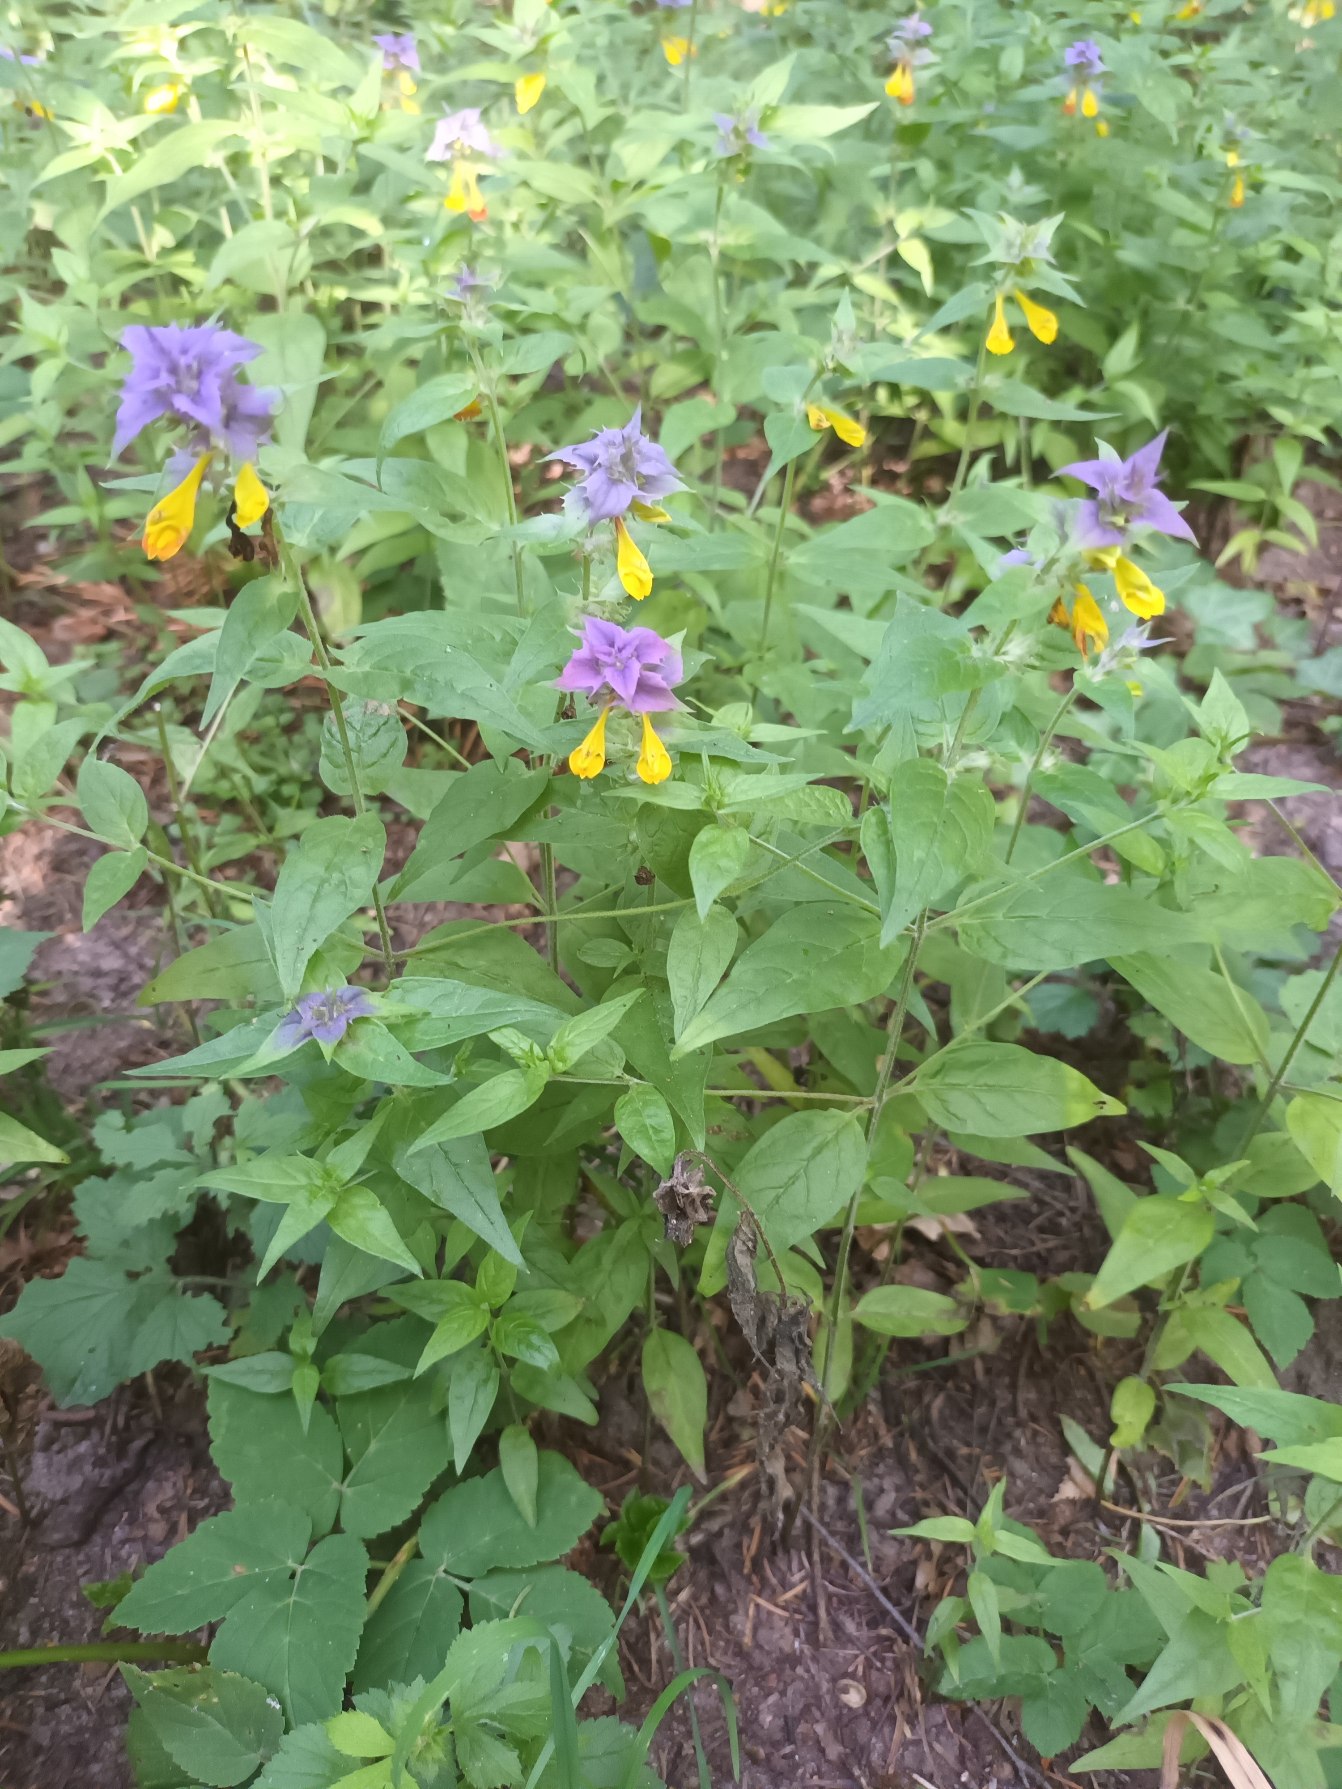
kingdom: Plantae
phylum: Tracheophyta
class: Magnoliopsida
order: Lamiales
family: Orobanchaceae
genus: Melampyrum
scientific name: Melampyrum nemorosum
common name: Blåtoppet kohvede
